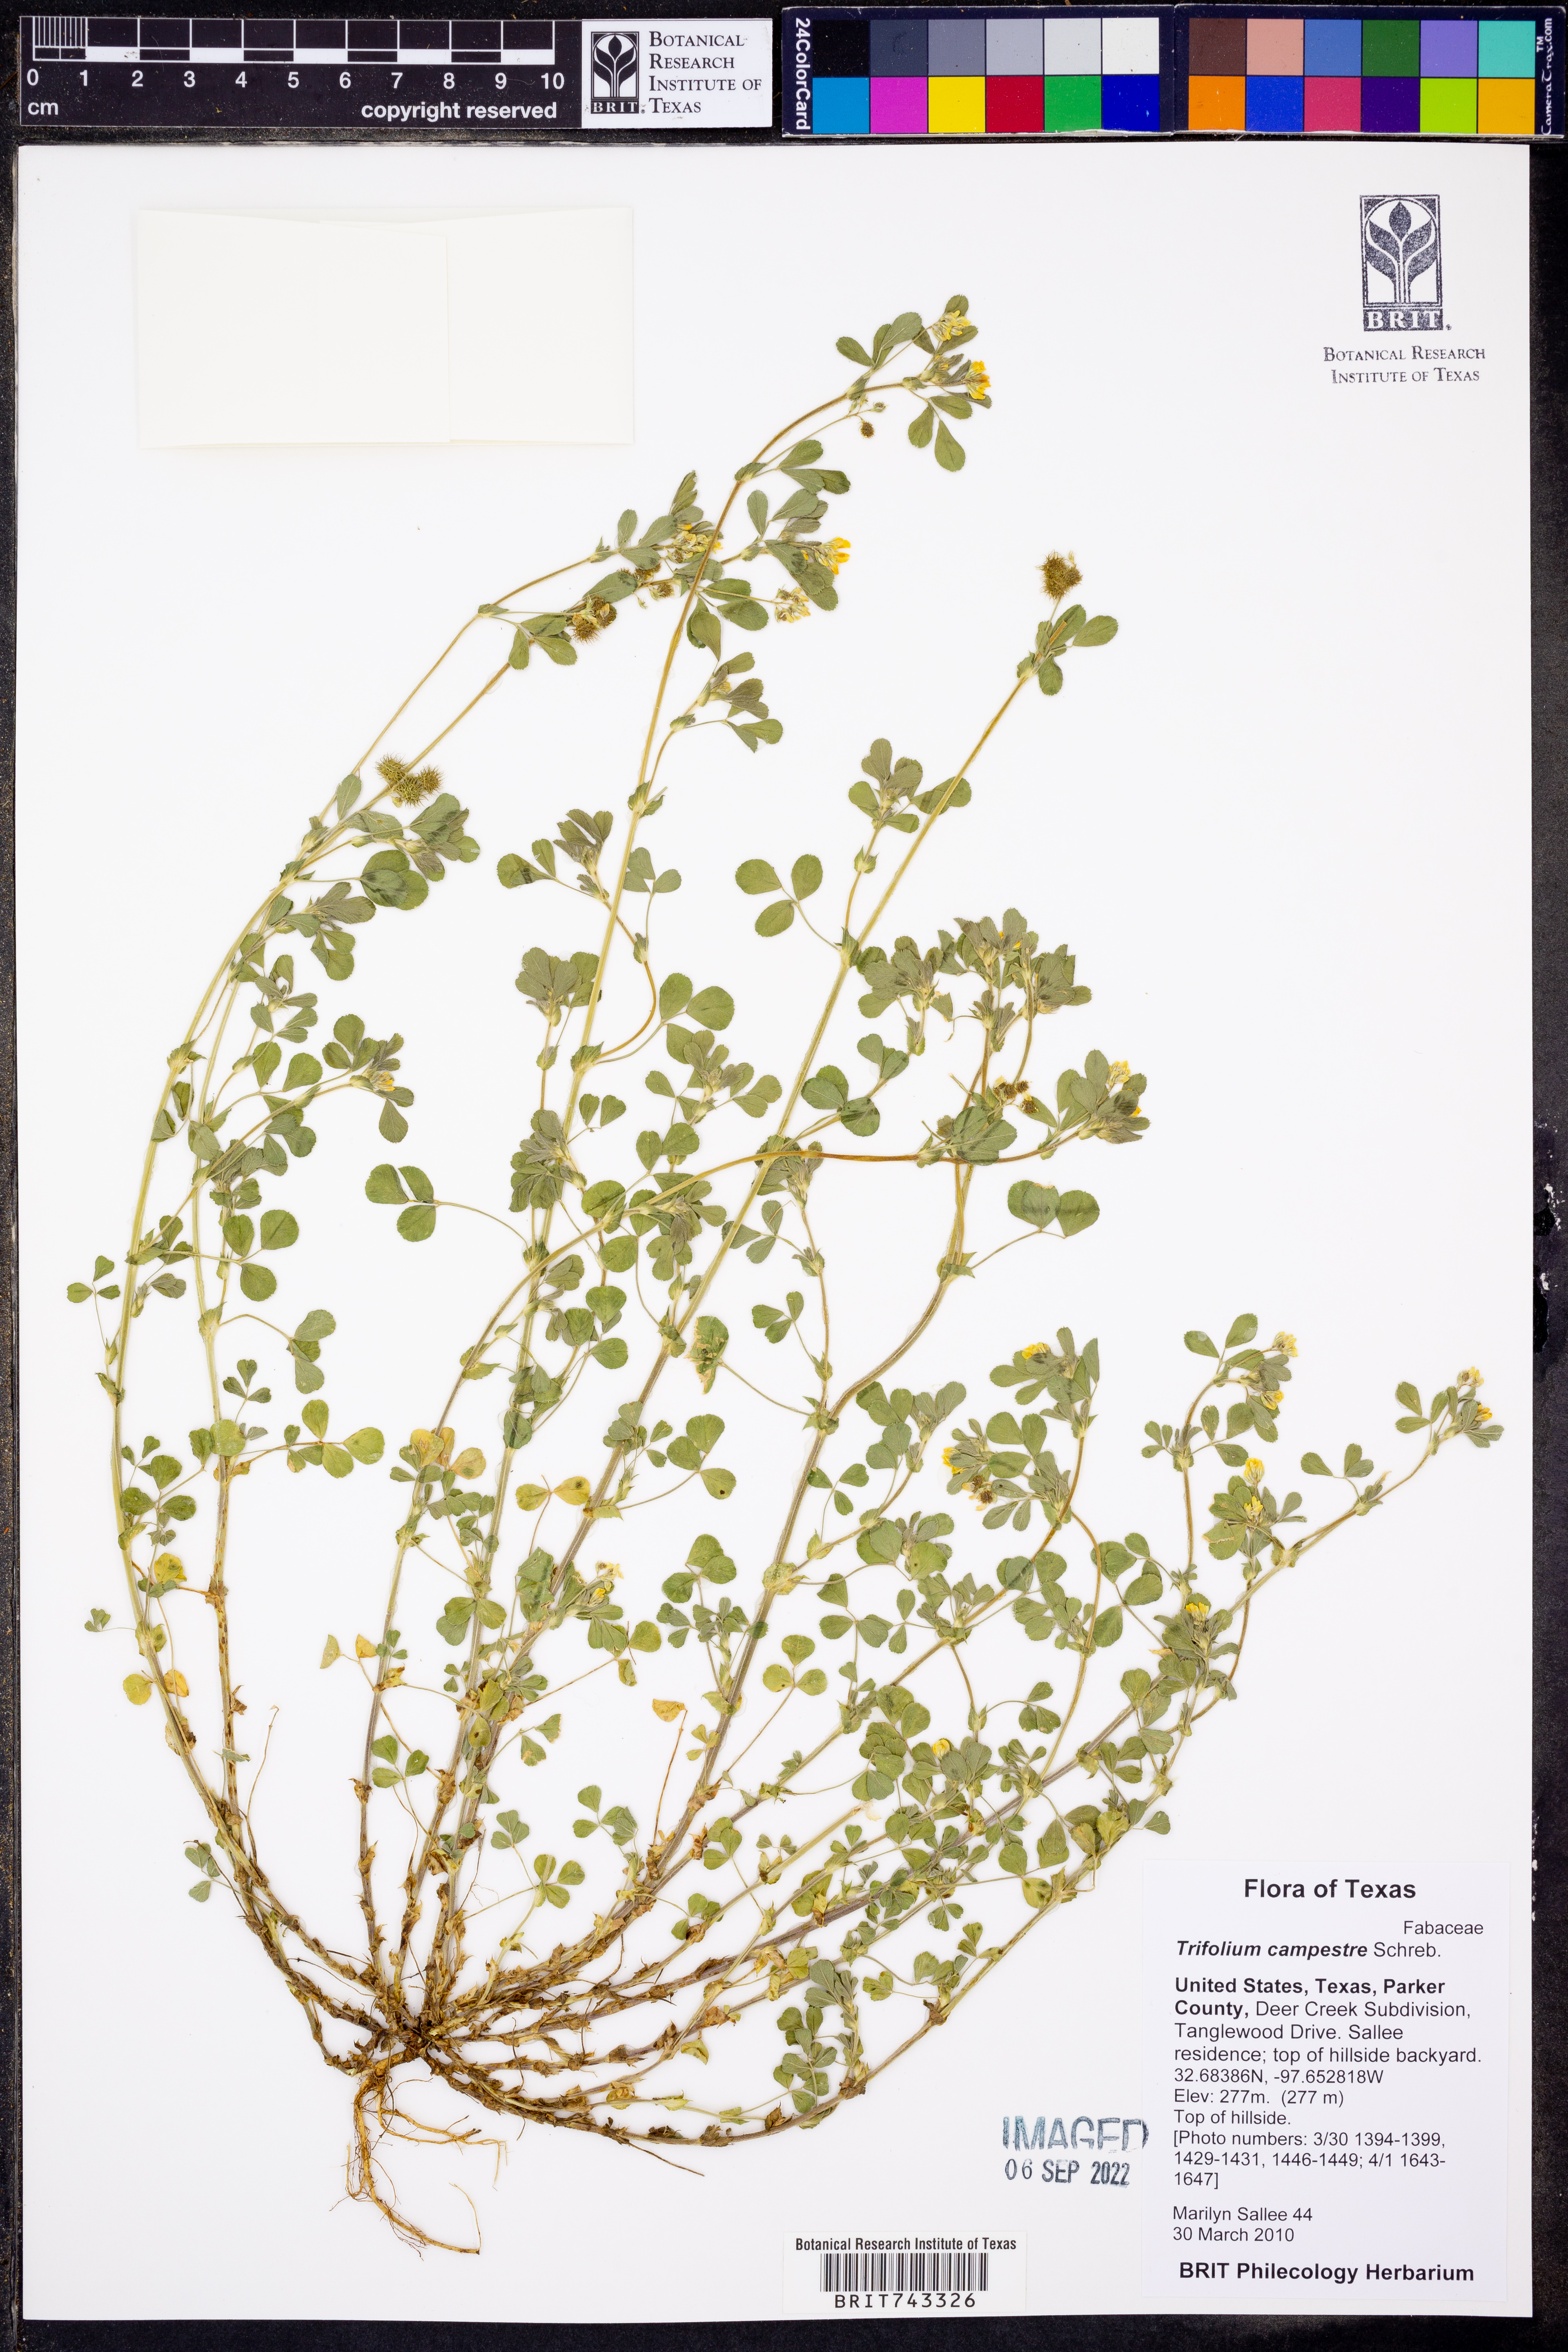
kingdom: Plantae
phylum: Tracheophyta
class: Magnoliopsida
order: Fabales
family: Fabaceae
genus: Trifolium
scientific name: Trifolium campestre
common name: Field clover
